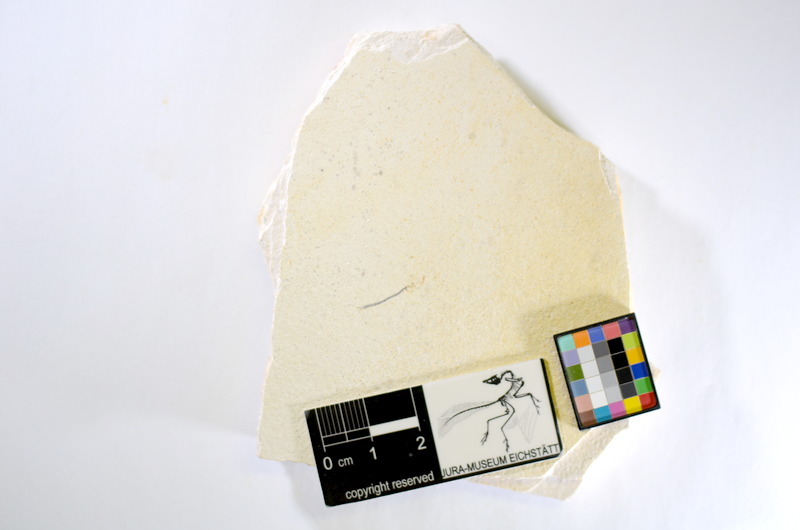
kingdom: Animalia
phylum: Chordata
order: Salmoniformes
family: Orthogonikleithridae
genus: Orthogonikleithrus
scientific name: Orthogonikleithrus hoelli
